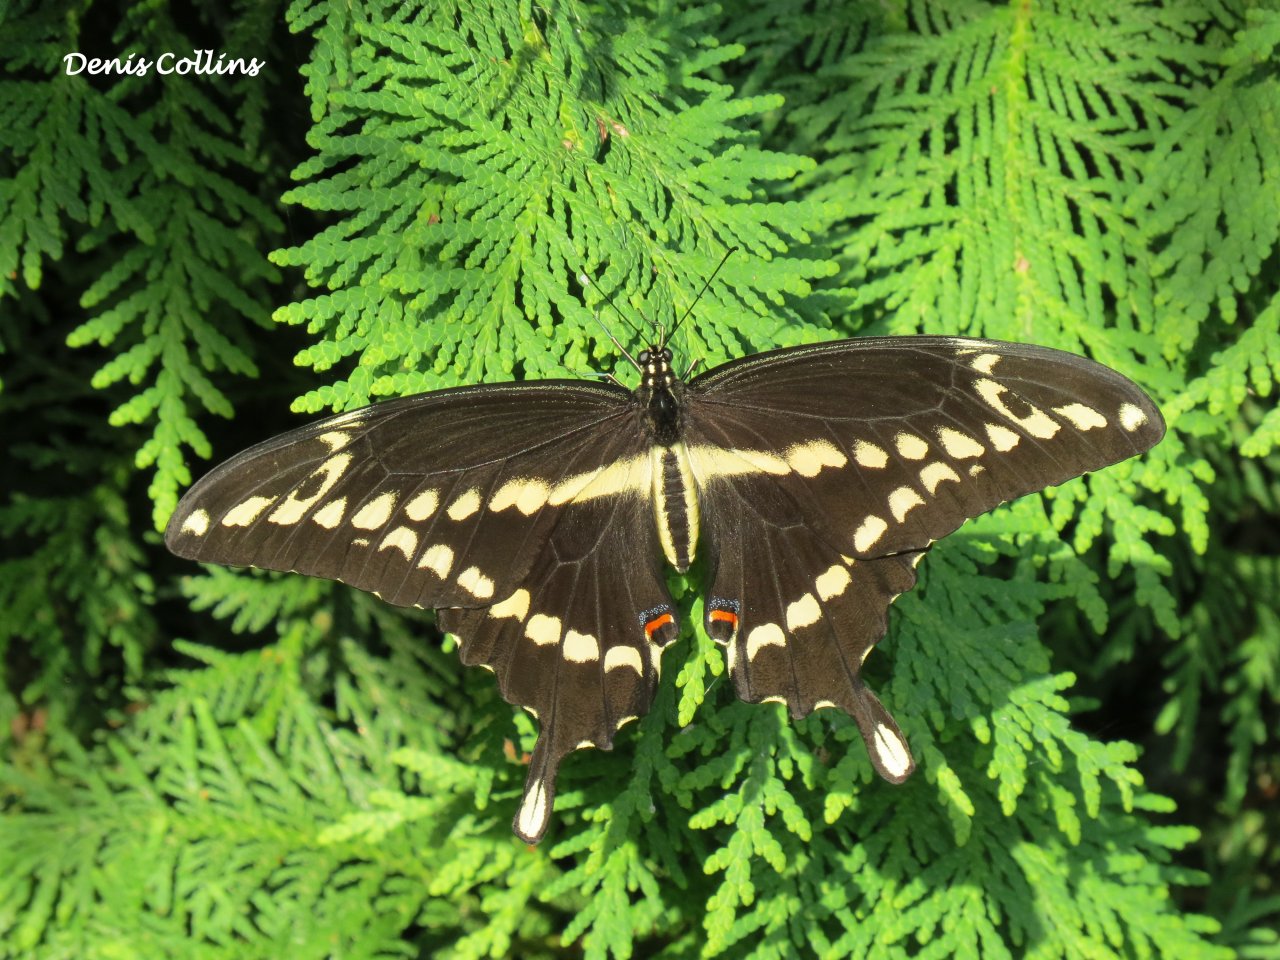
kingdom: Animalia
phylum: Arthropoda
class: Insecta
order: Lepidoptera
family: Papilionidae
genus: Papilio
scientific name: Papilio cresphontes
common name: Eastern Giant Swallowtail
